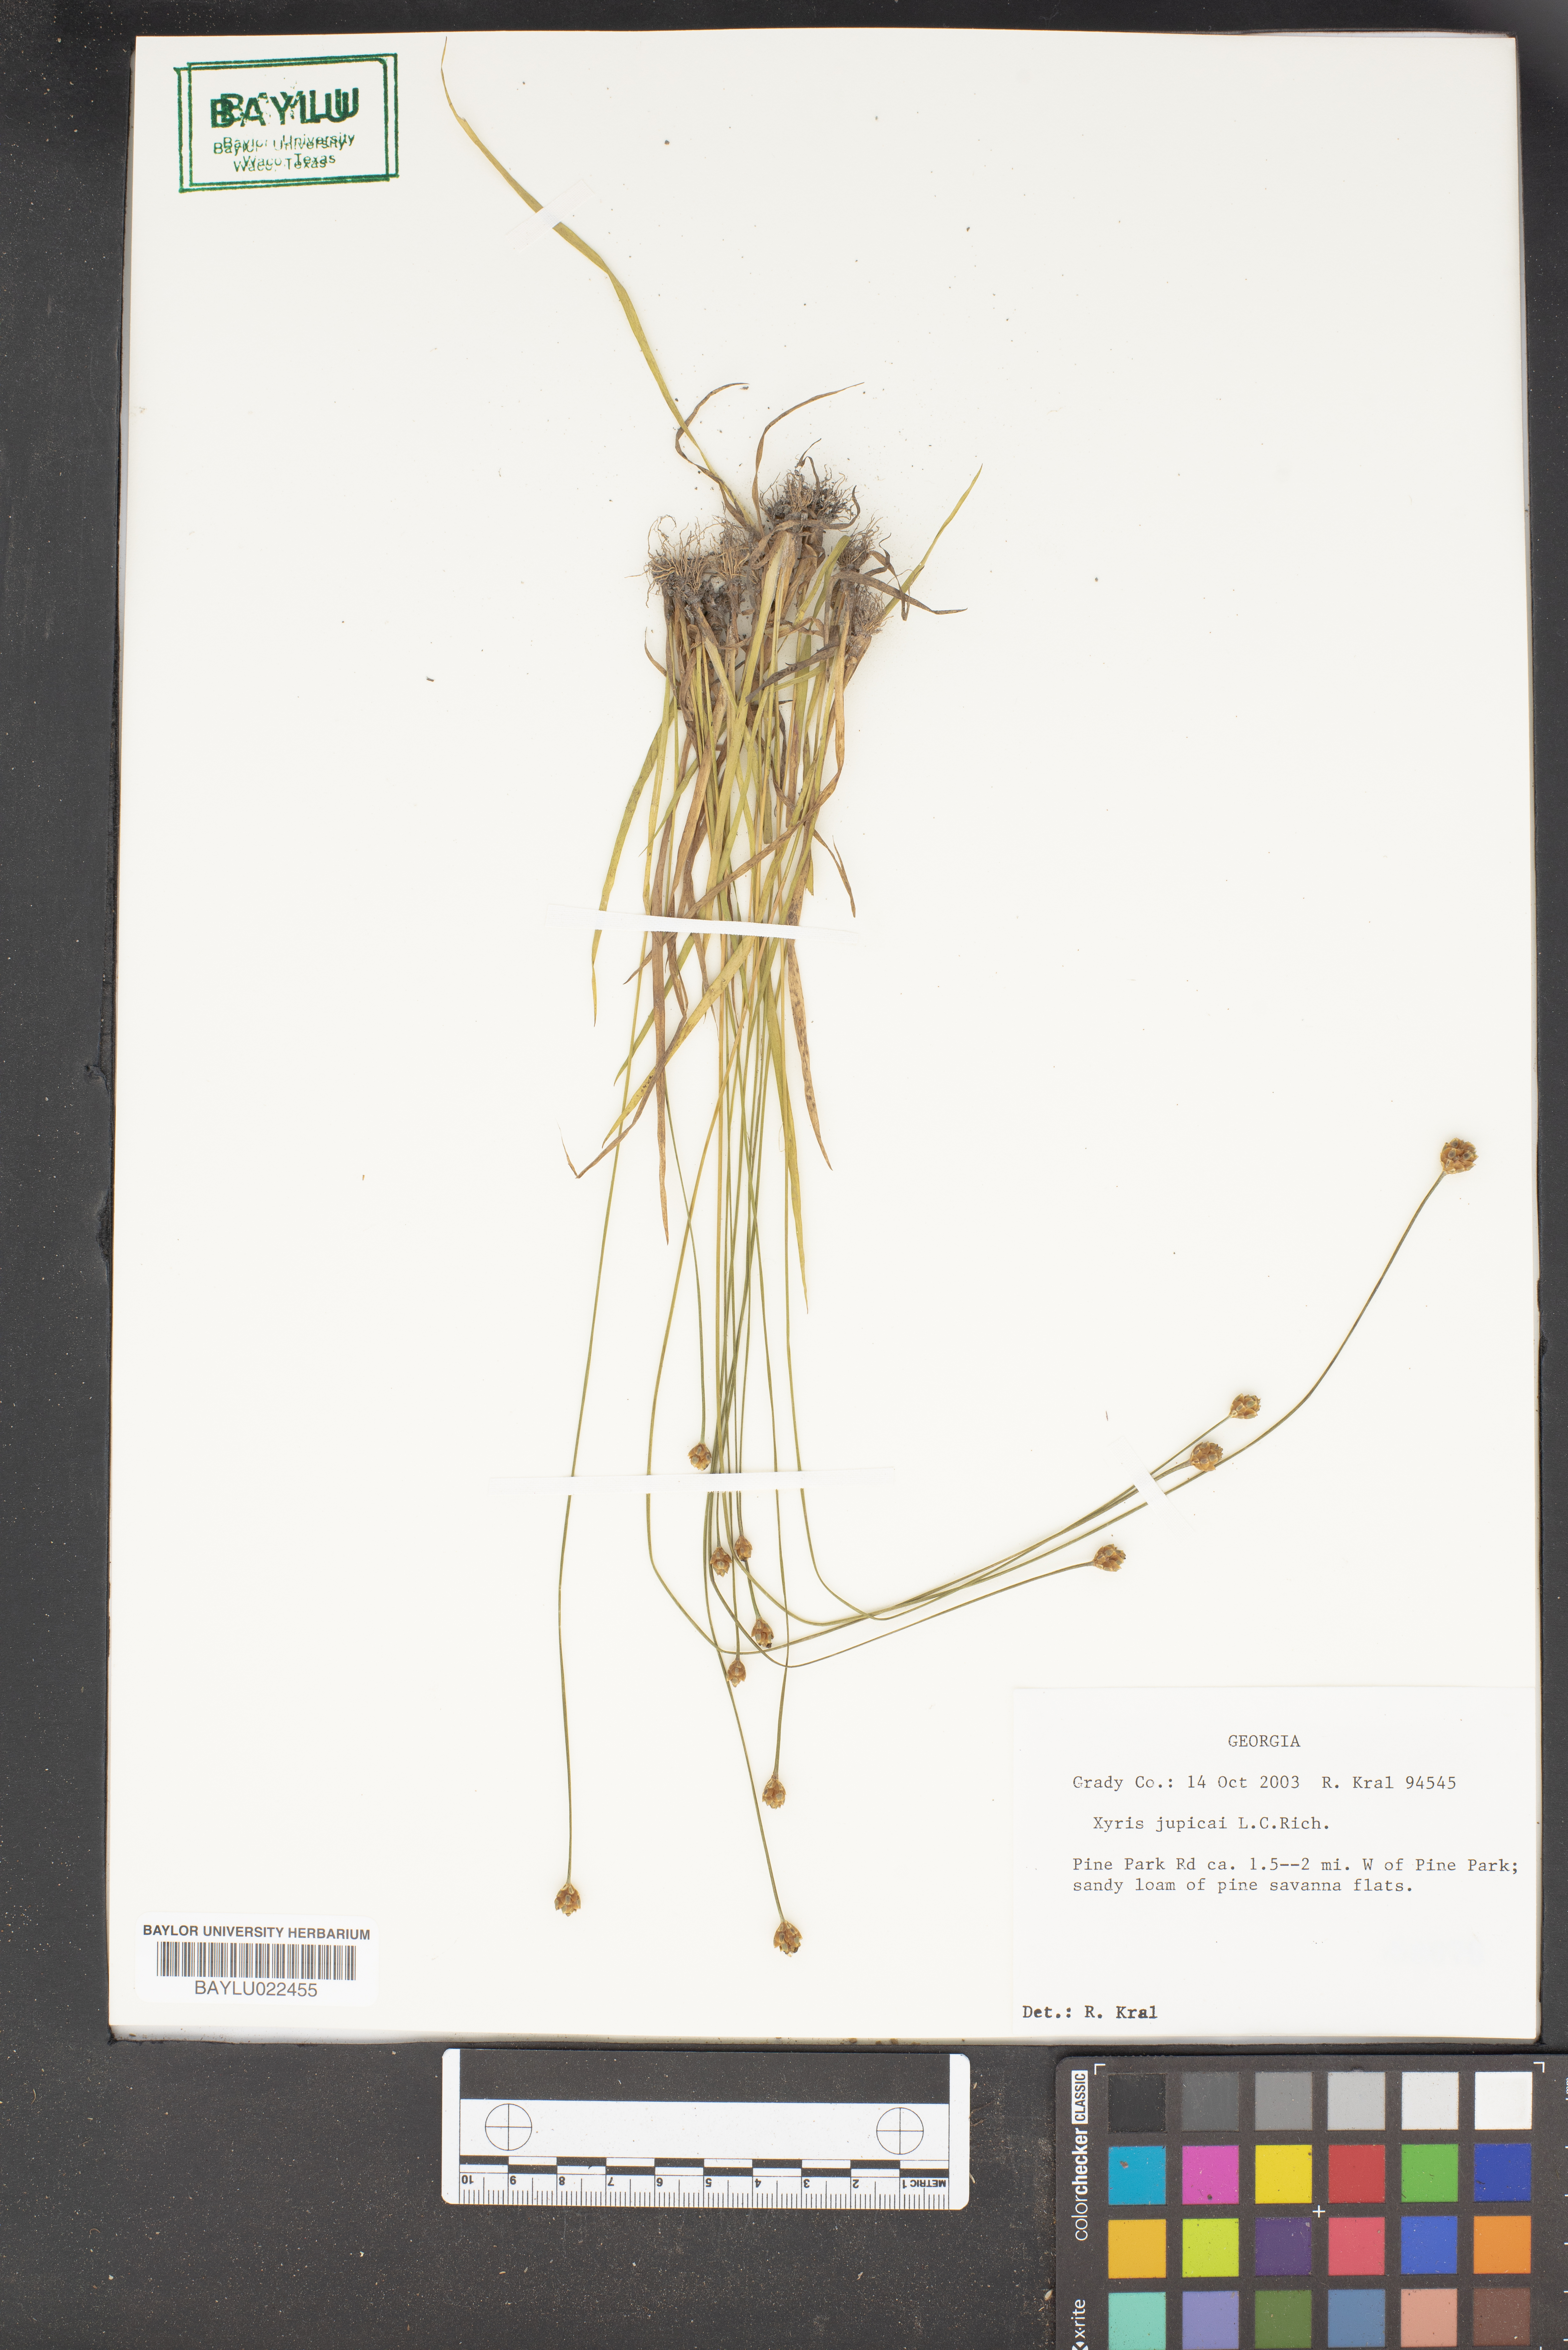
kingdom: Plantae
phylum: Tracheophyta
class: Liliopsida
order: Poales
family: Xyridaceae
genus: Xyris
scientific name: Xyris jupicai
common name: Richard's yelloweyed grass
